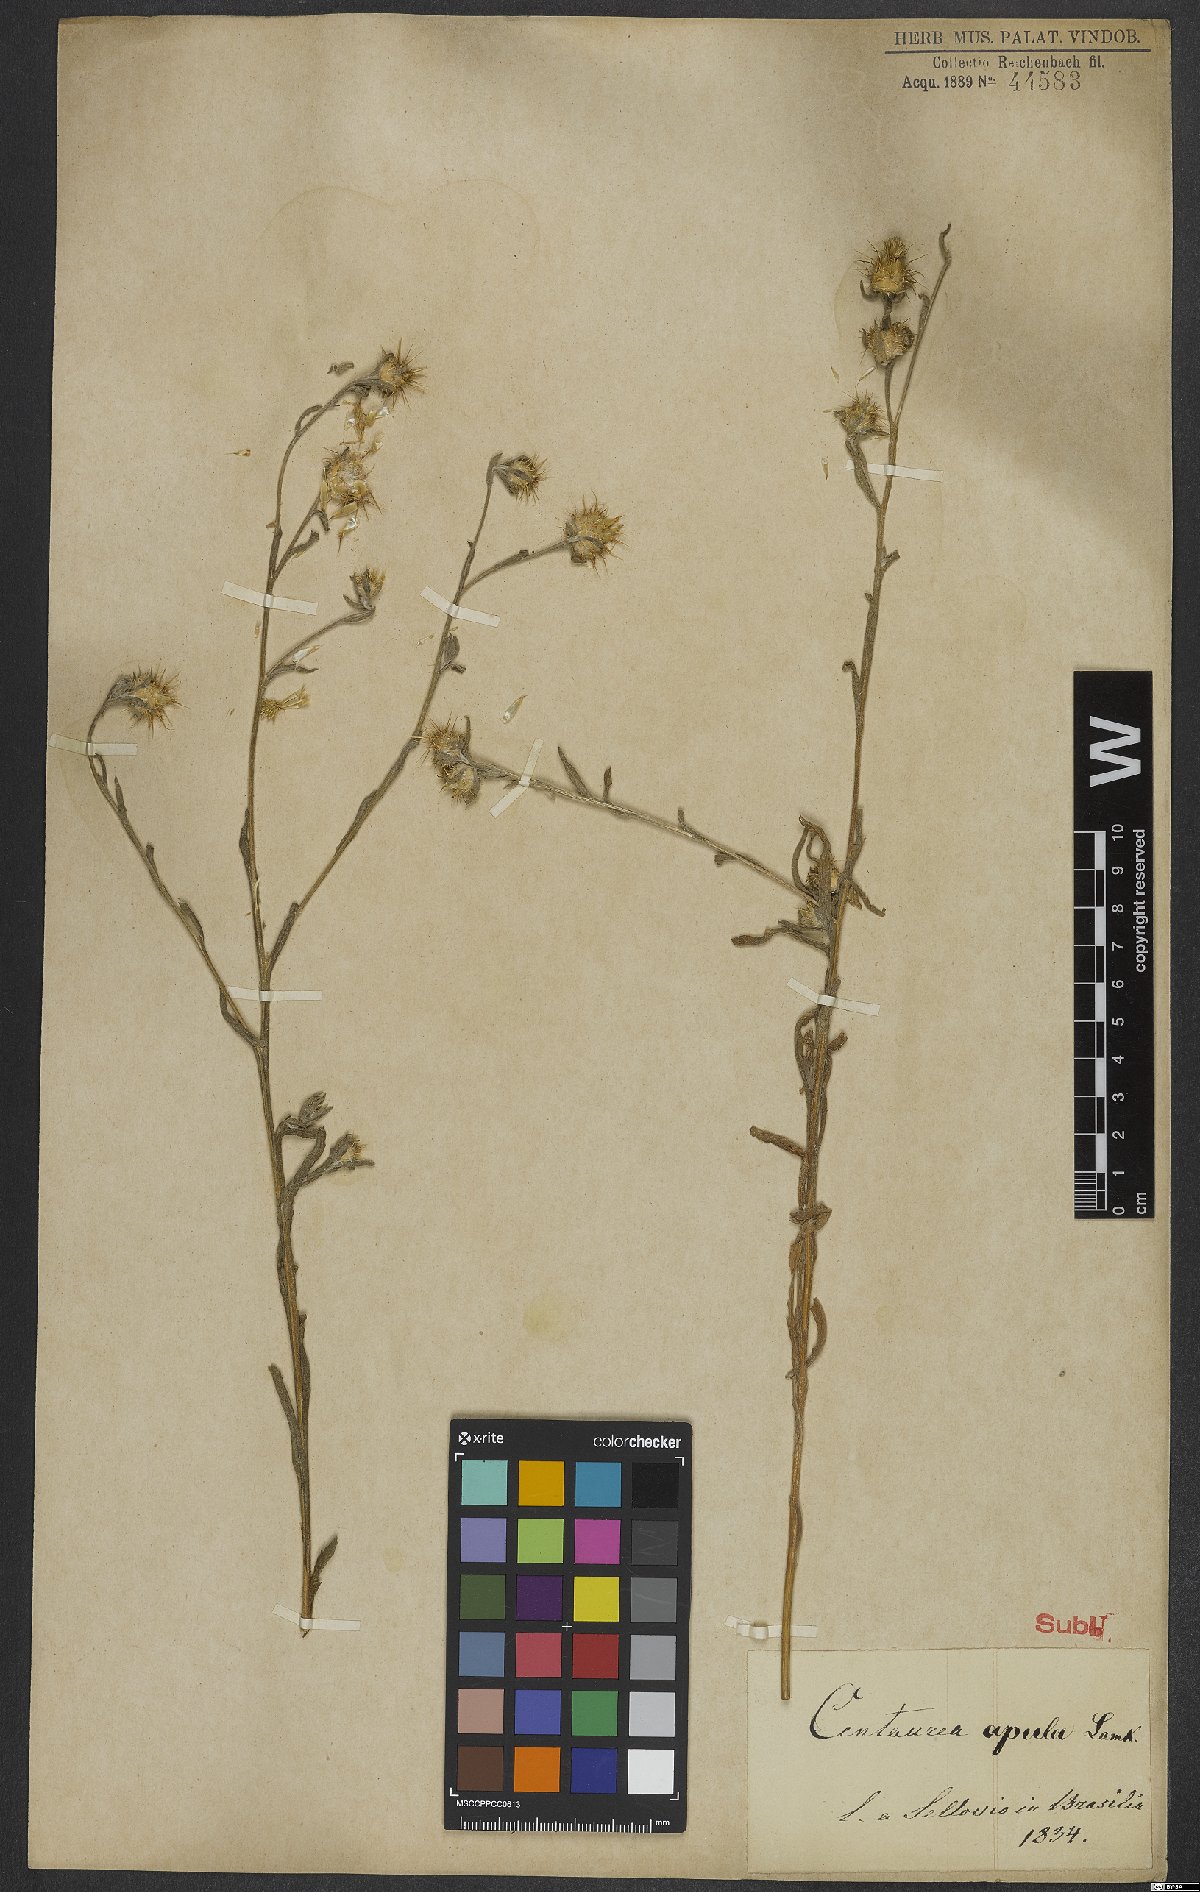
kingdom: Plantae
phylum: Tracheophyta
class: Magnoliopsida
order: Asterales
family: Asteraceae
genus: Centaurea
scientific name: Centaurea melitensis
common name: Maltese star-thistle
